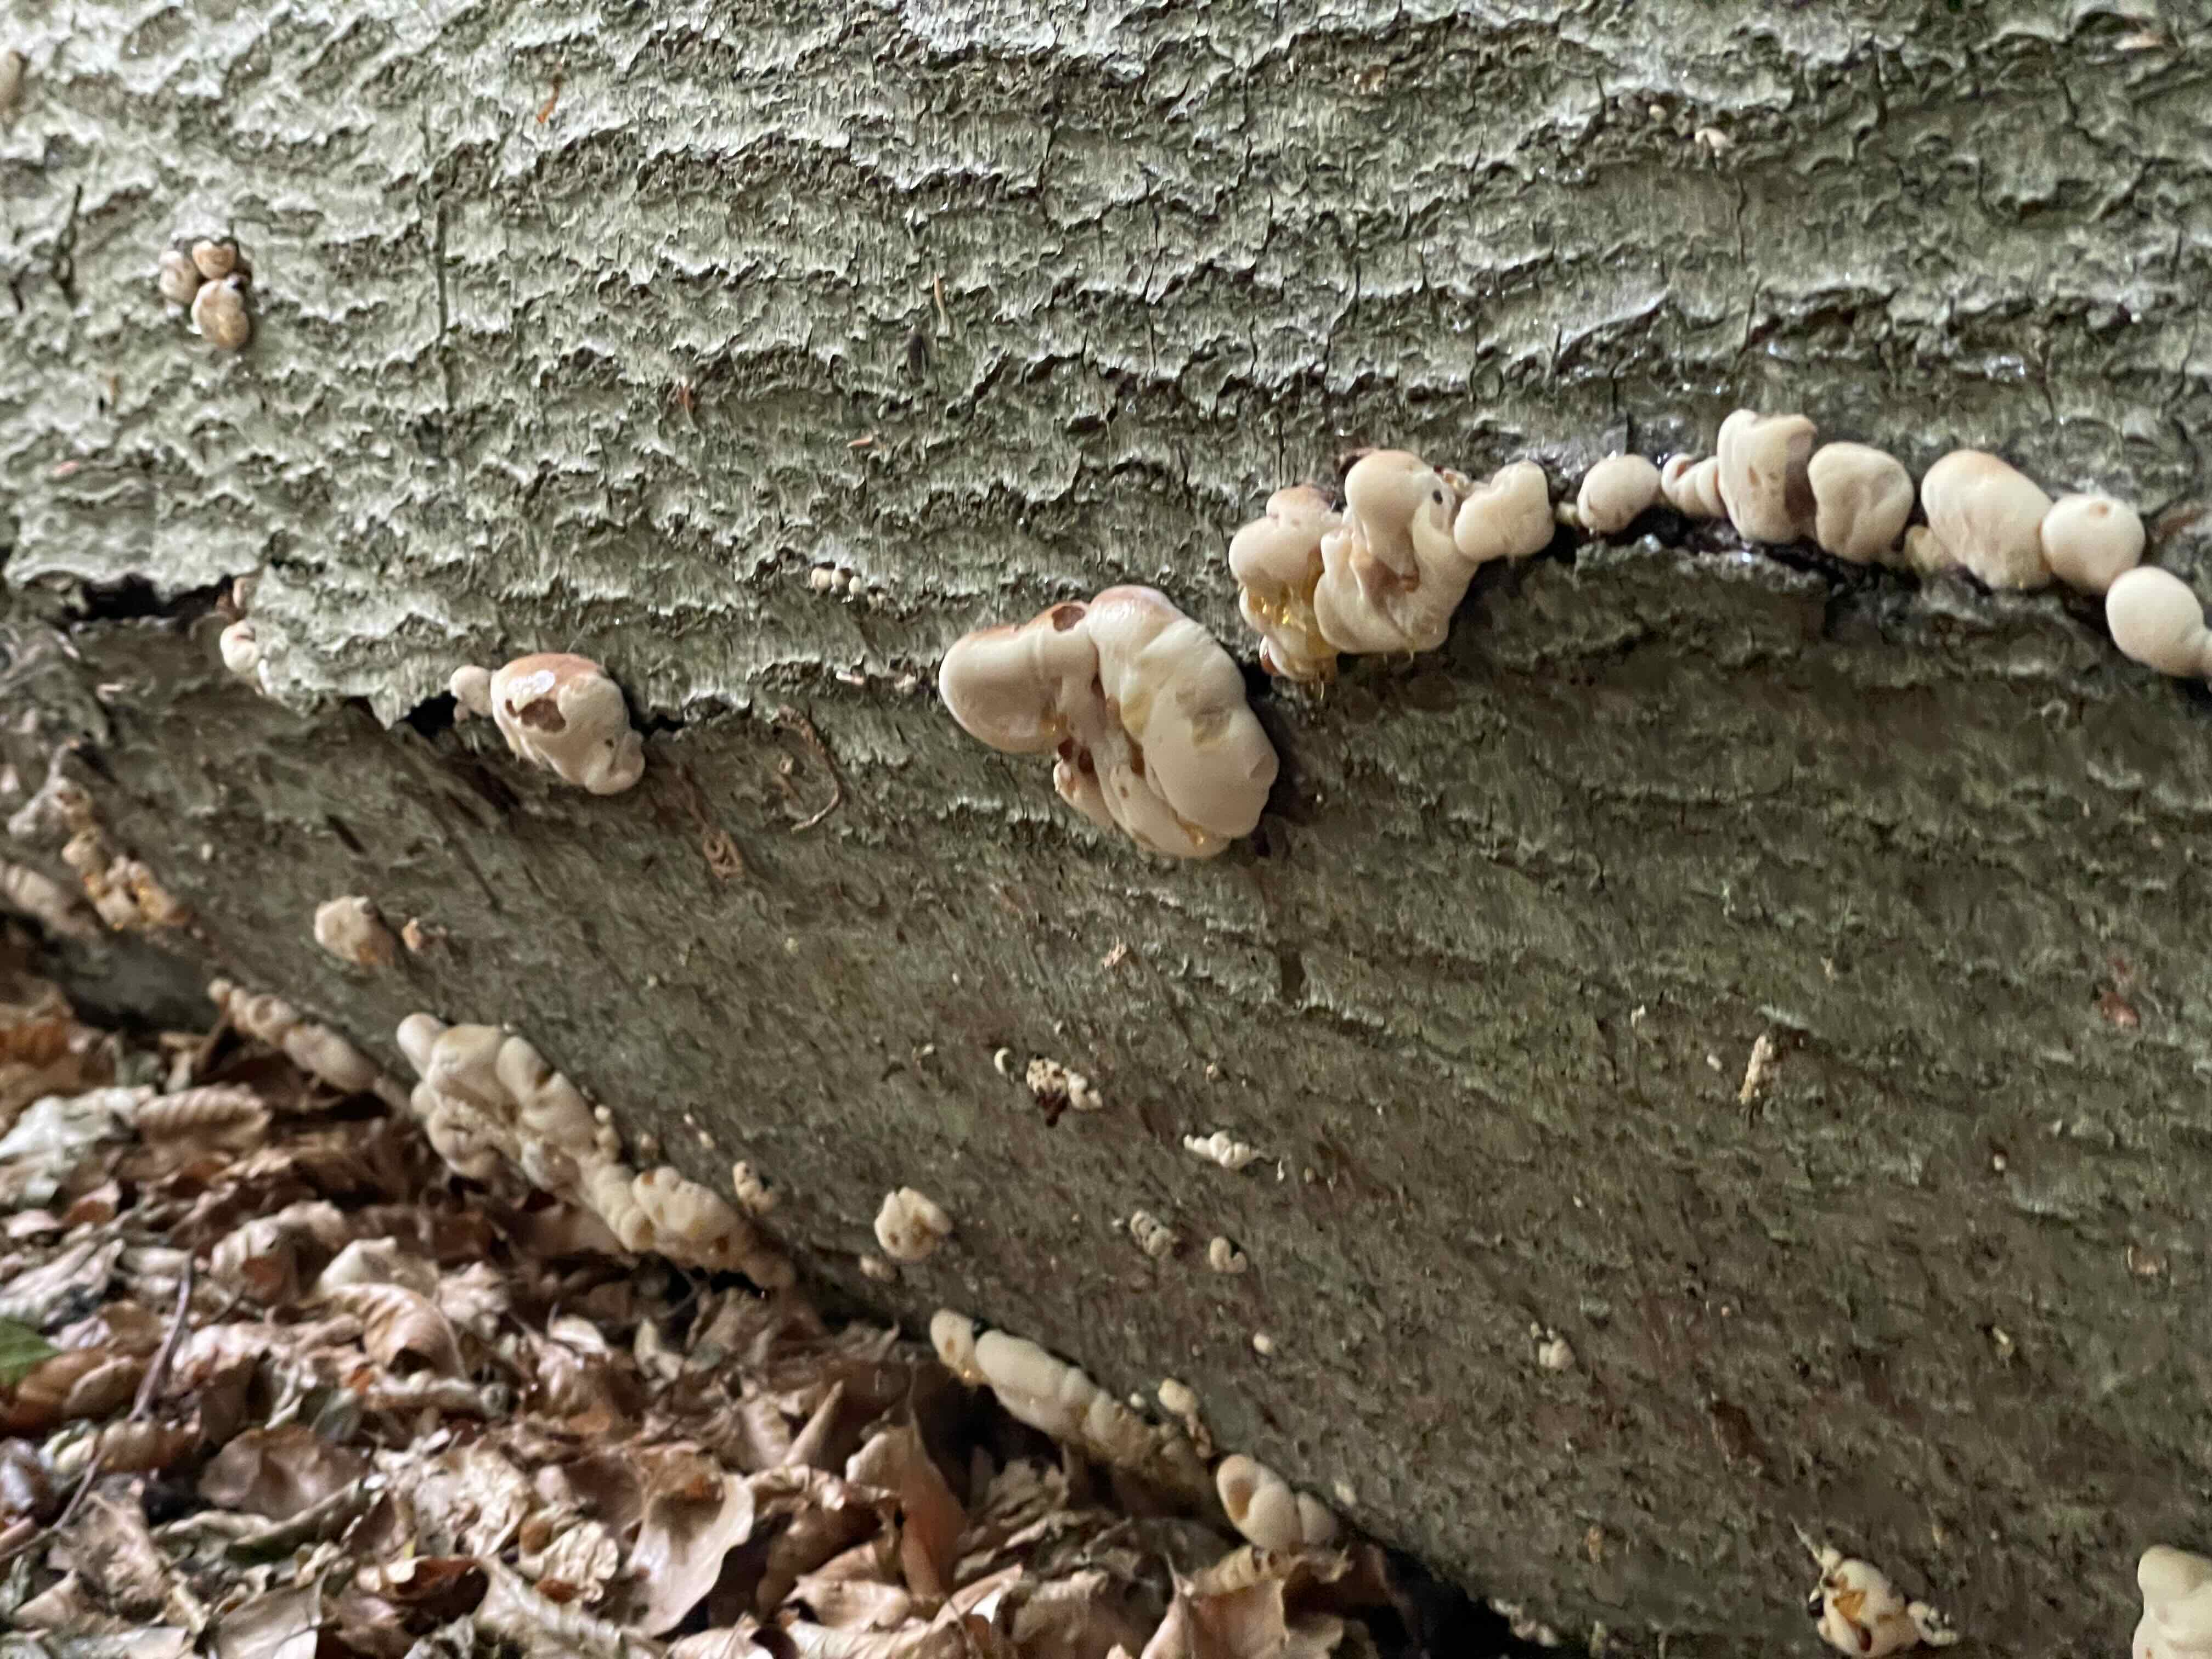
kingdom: Fungi
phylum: Basidiomycota
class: Agaricomycetes
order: Polyporales
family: Ischnodermataceae
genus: Ischnoderma
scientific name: Ischnoderma resinosum
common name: løv-tjæreporesvamp
